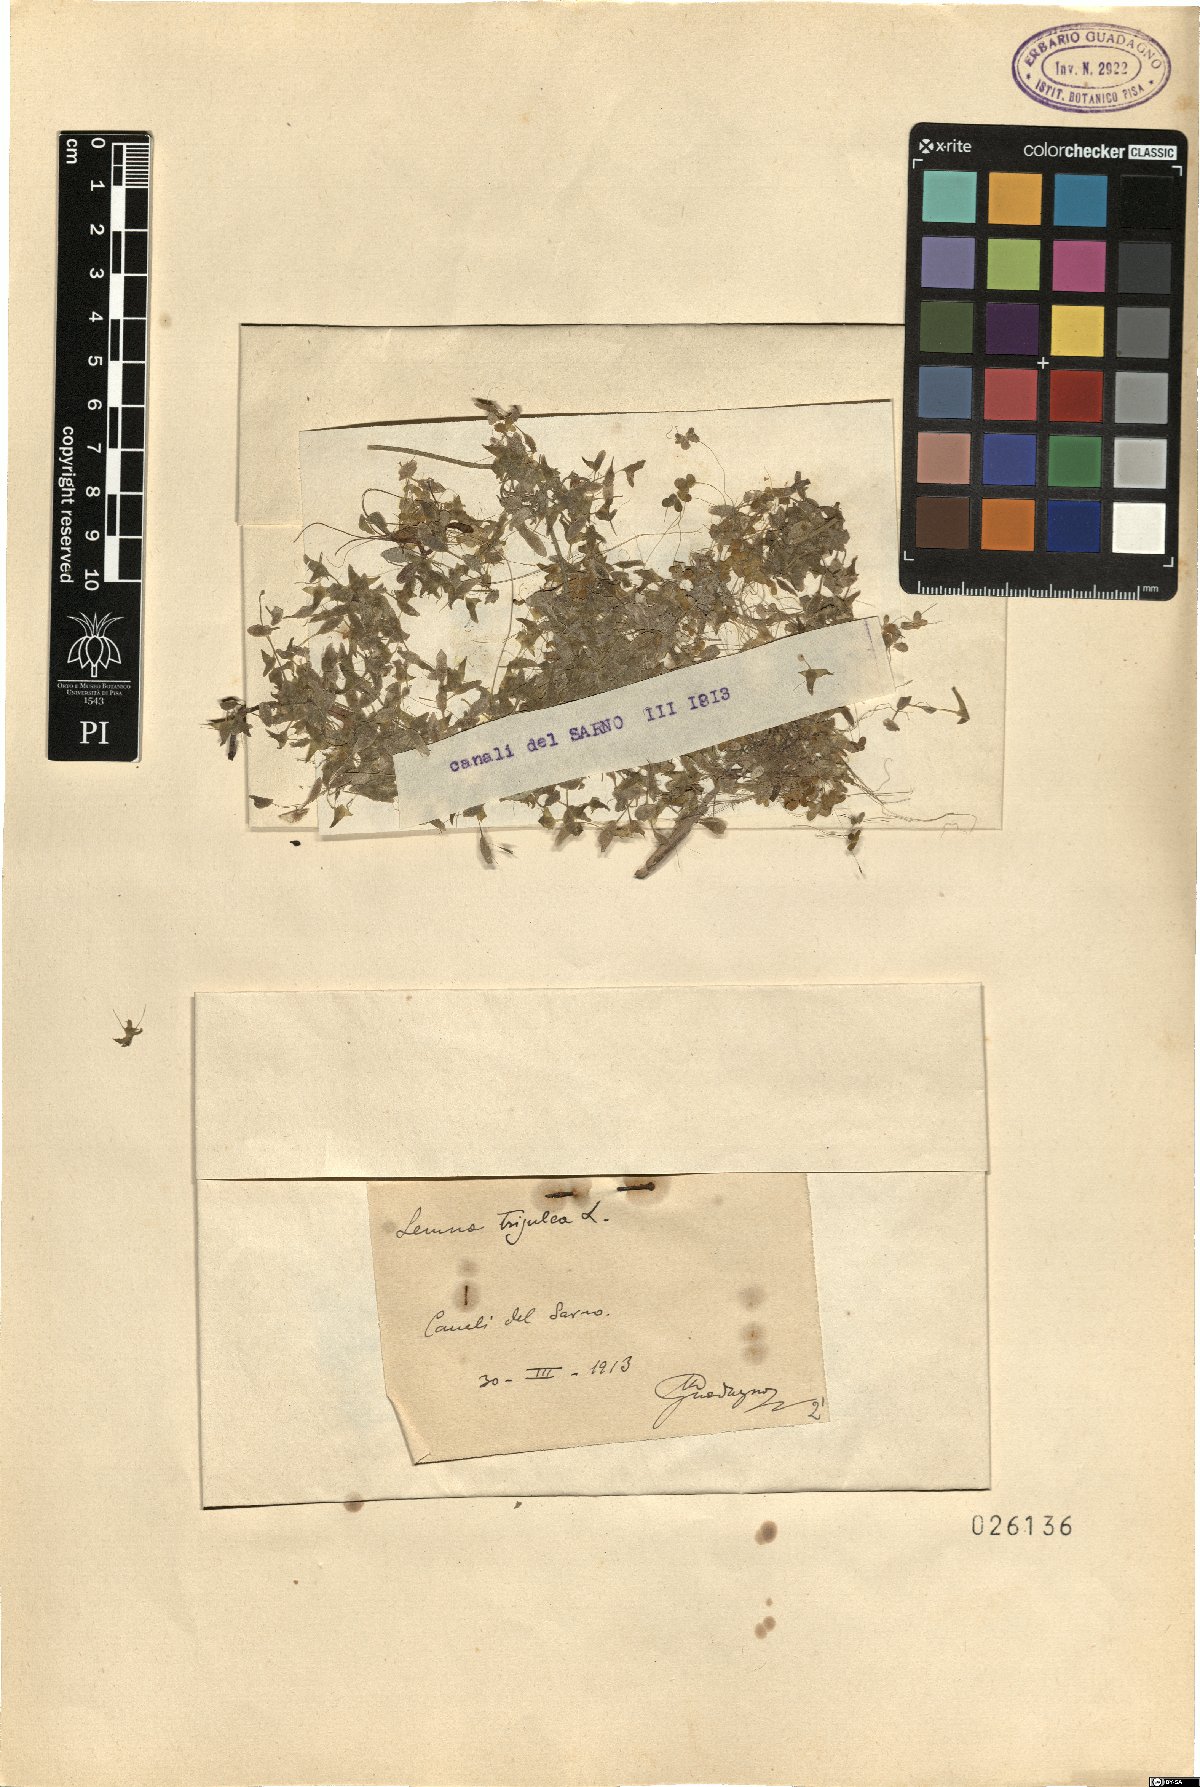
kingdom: Plantae
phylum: Tracheophyta
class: Liliopsida
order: Alismatales
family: Araceae
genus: Lemna
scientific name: Lemna trisulca
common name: Ivy-leaved duckweed
